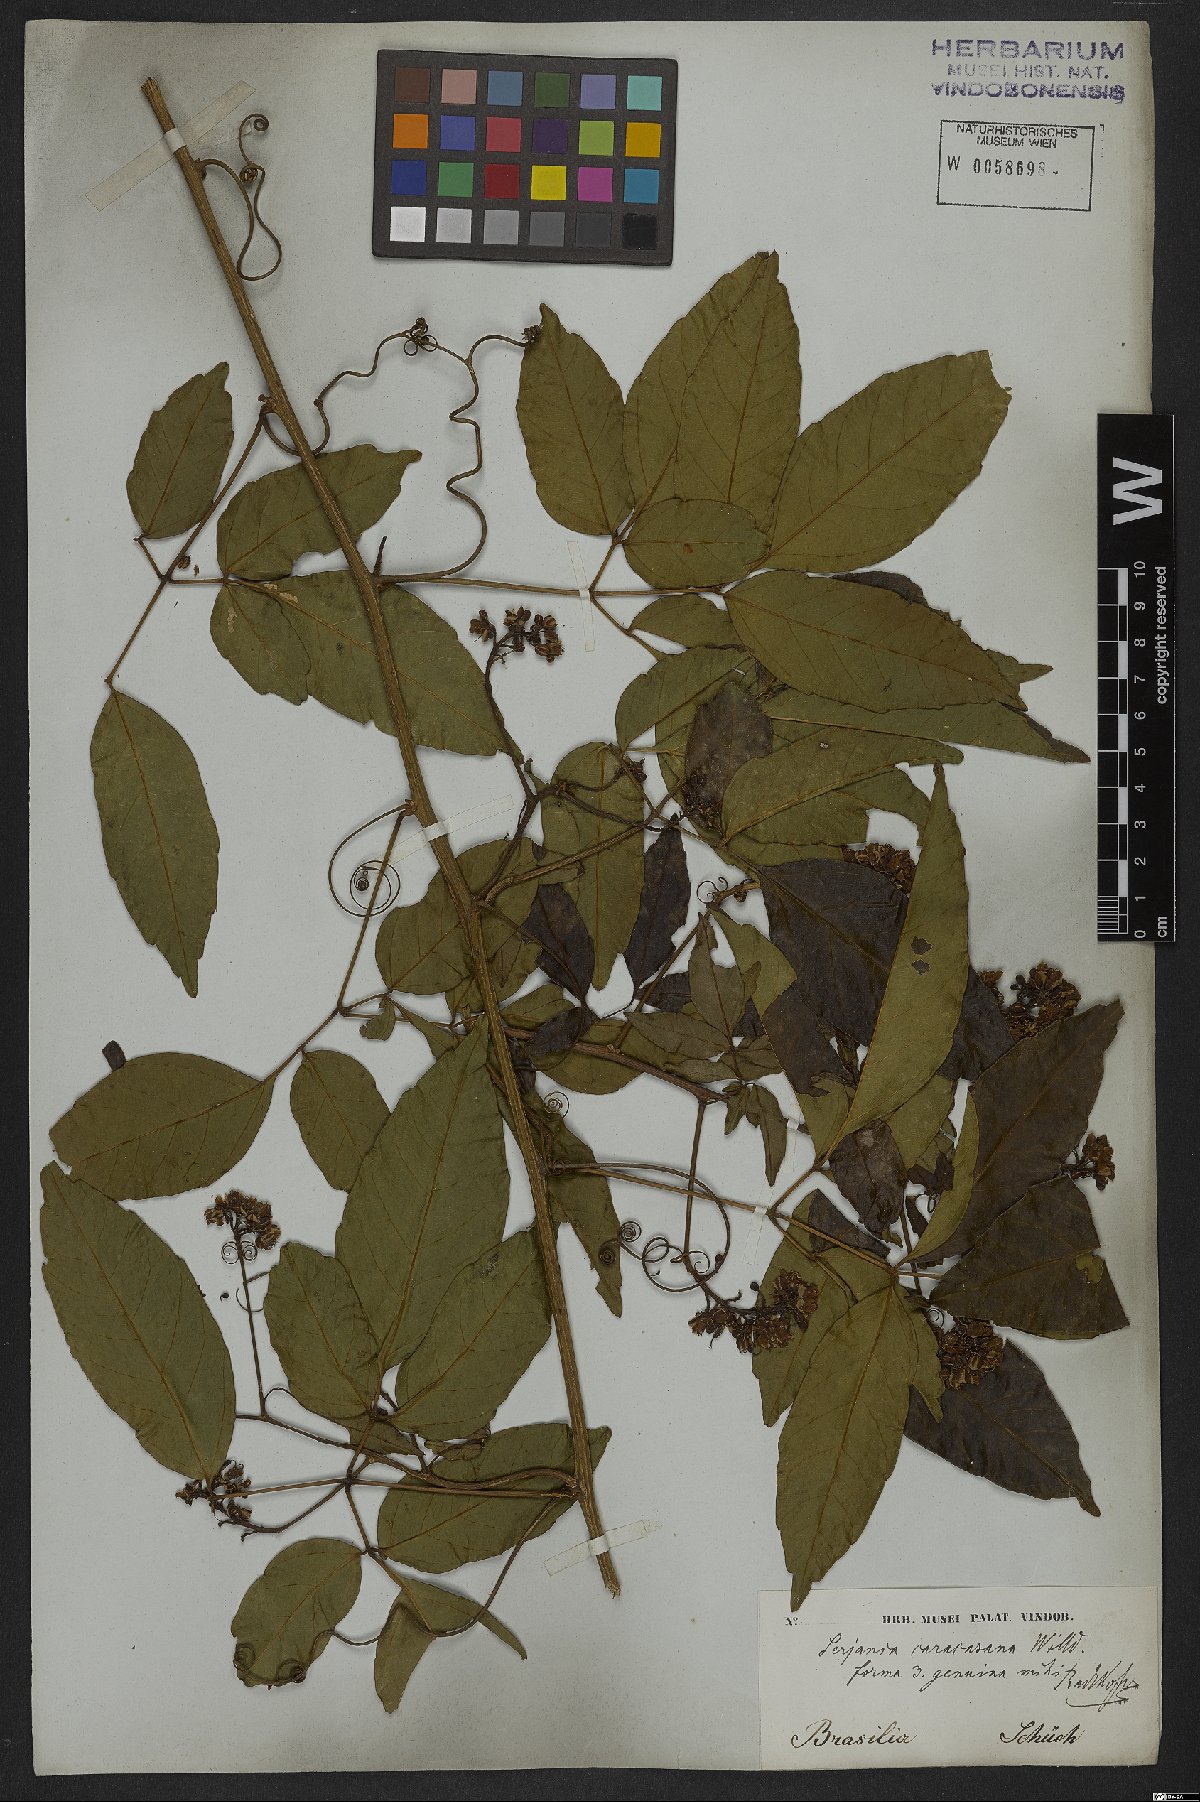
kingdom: Plantae
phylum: Tracheophyta
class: Magnoliopsida
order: Sapindales
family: Sapindaceae
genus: Serjania
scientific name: Serjania caracasana
